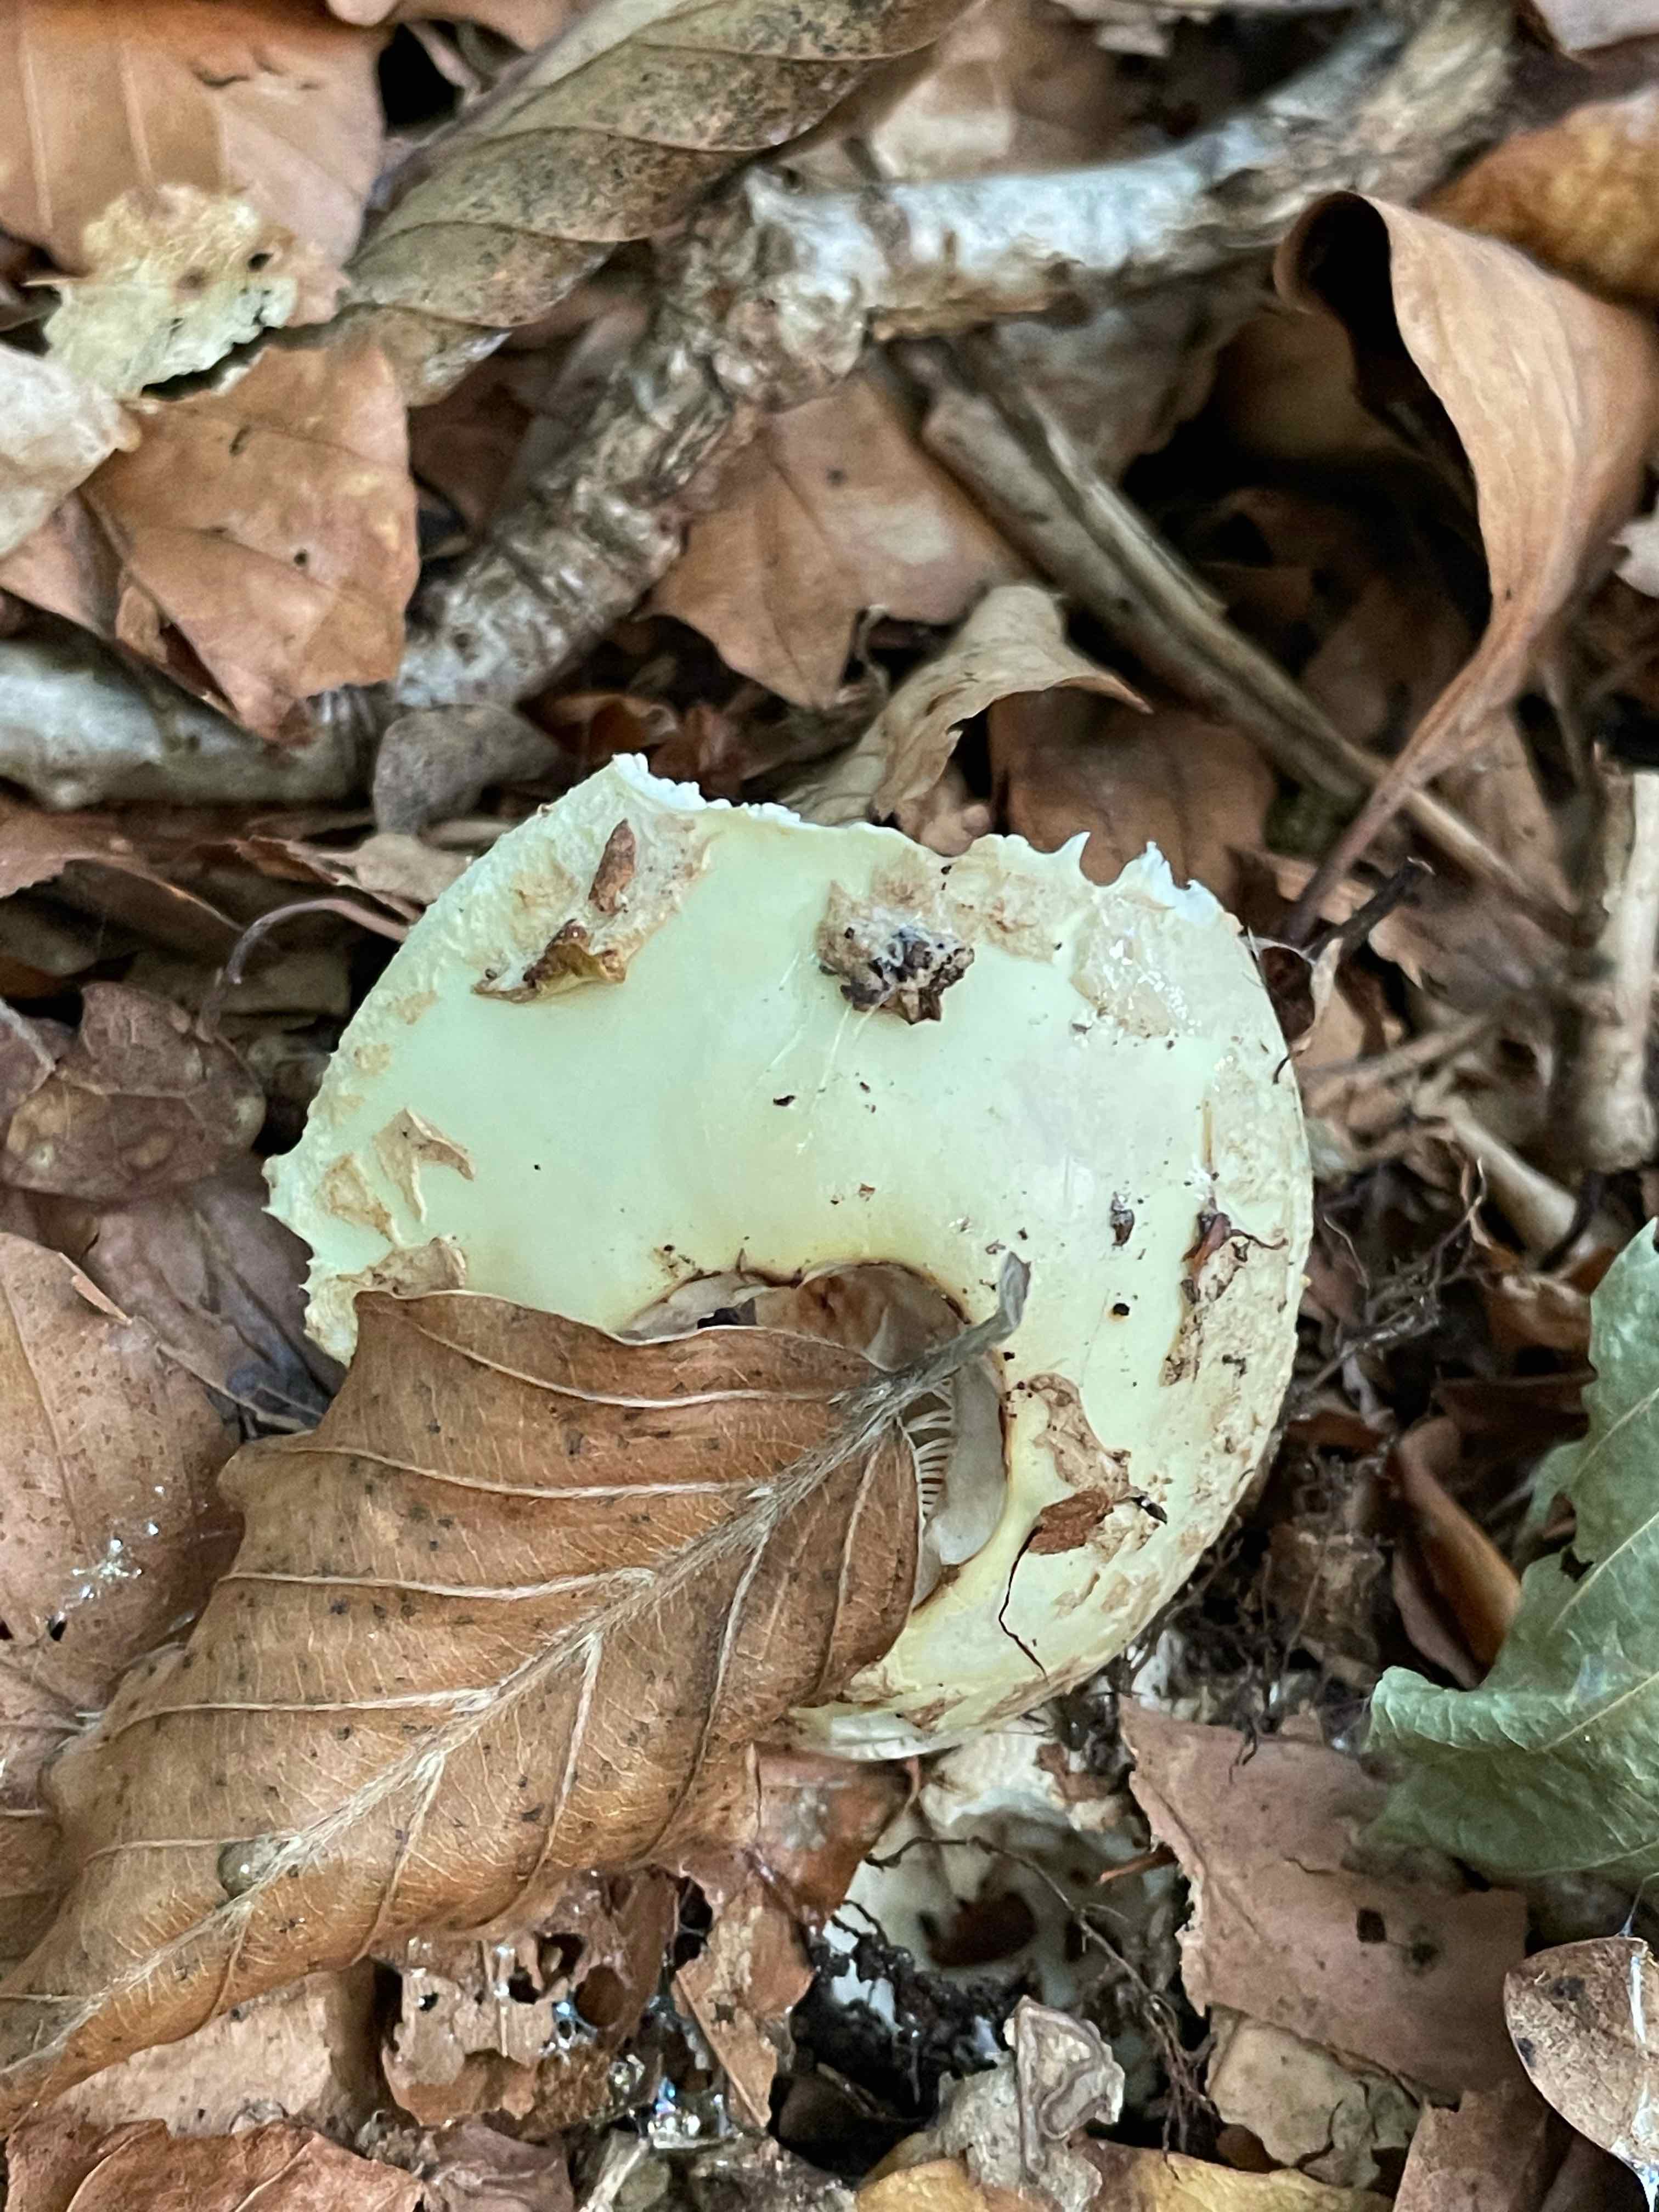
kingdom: Fungi
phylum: Basidiomycota
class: Agaricomycetes
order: Agaricales
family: Amanitaceae
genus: Amanita
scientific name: Amanita citrina
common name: kugleknoldet fluesvamp
